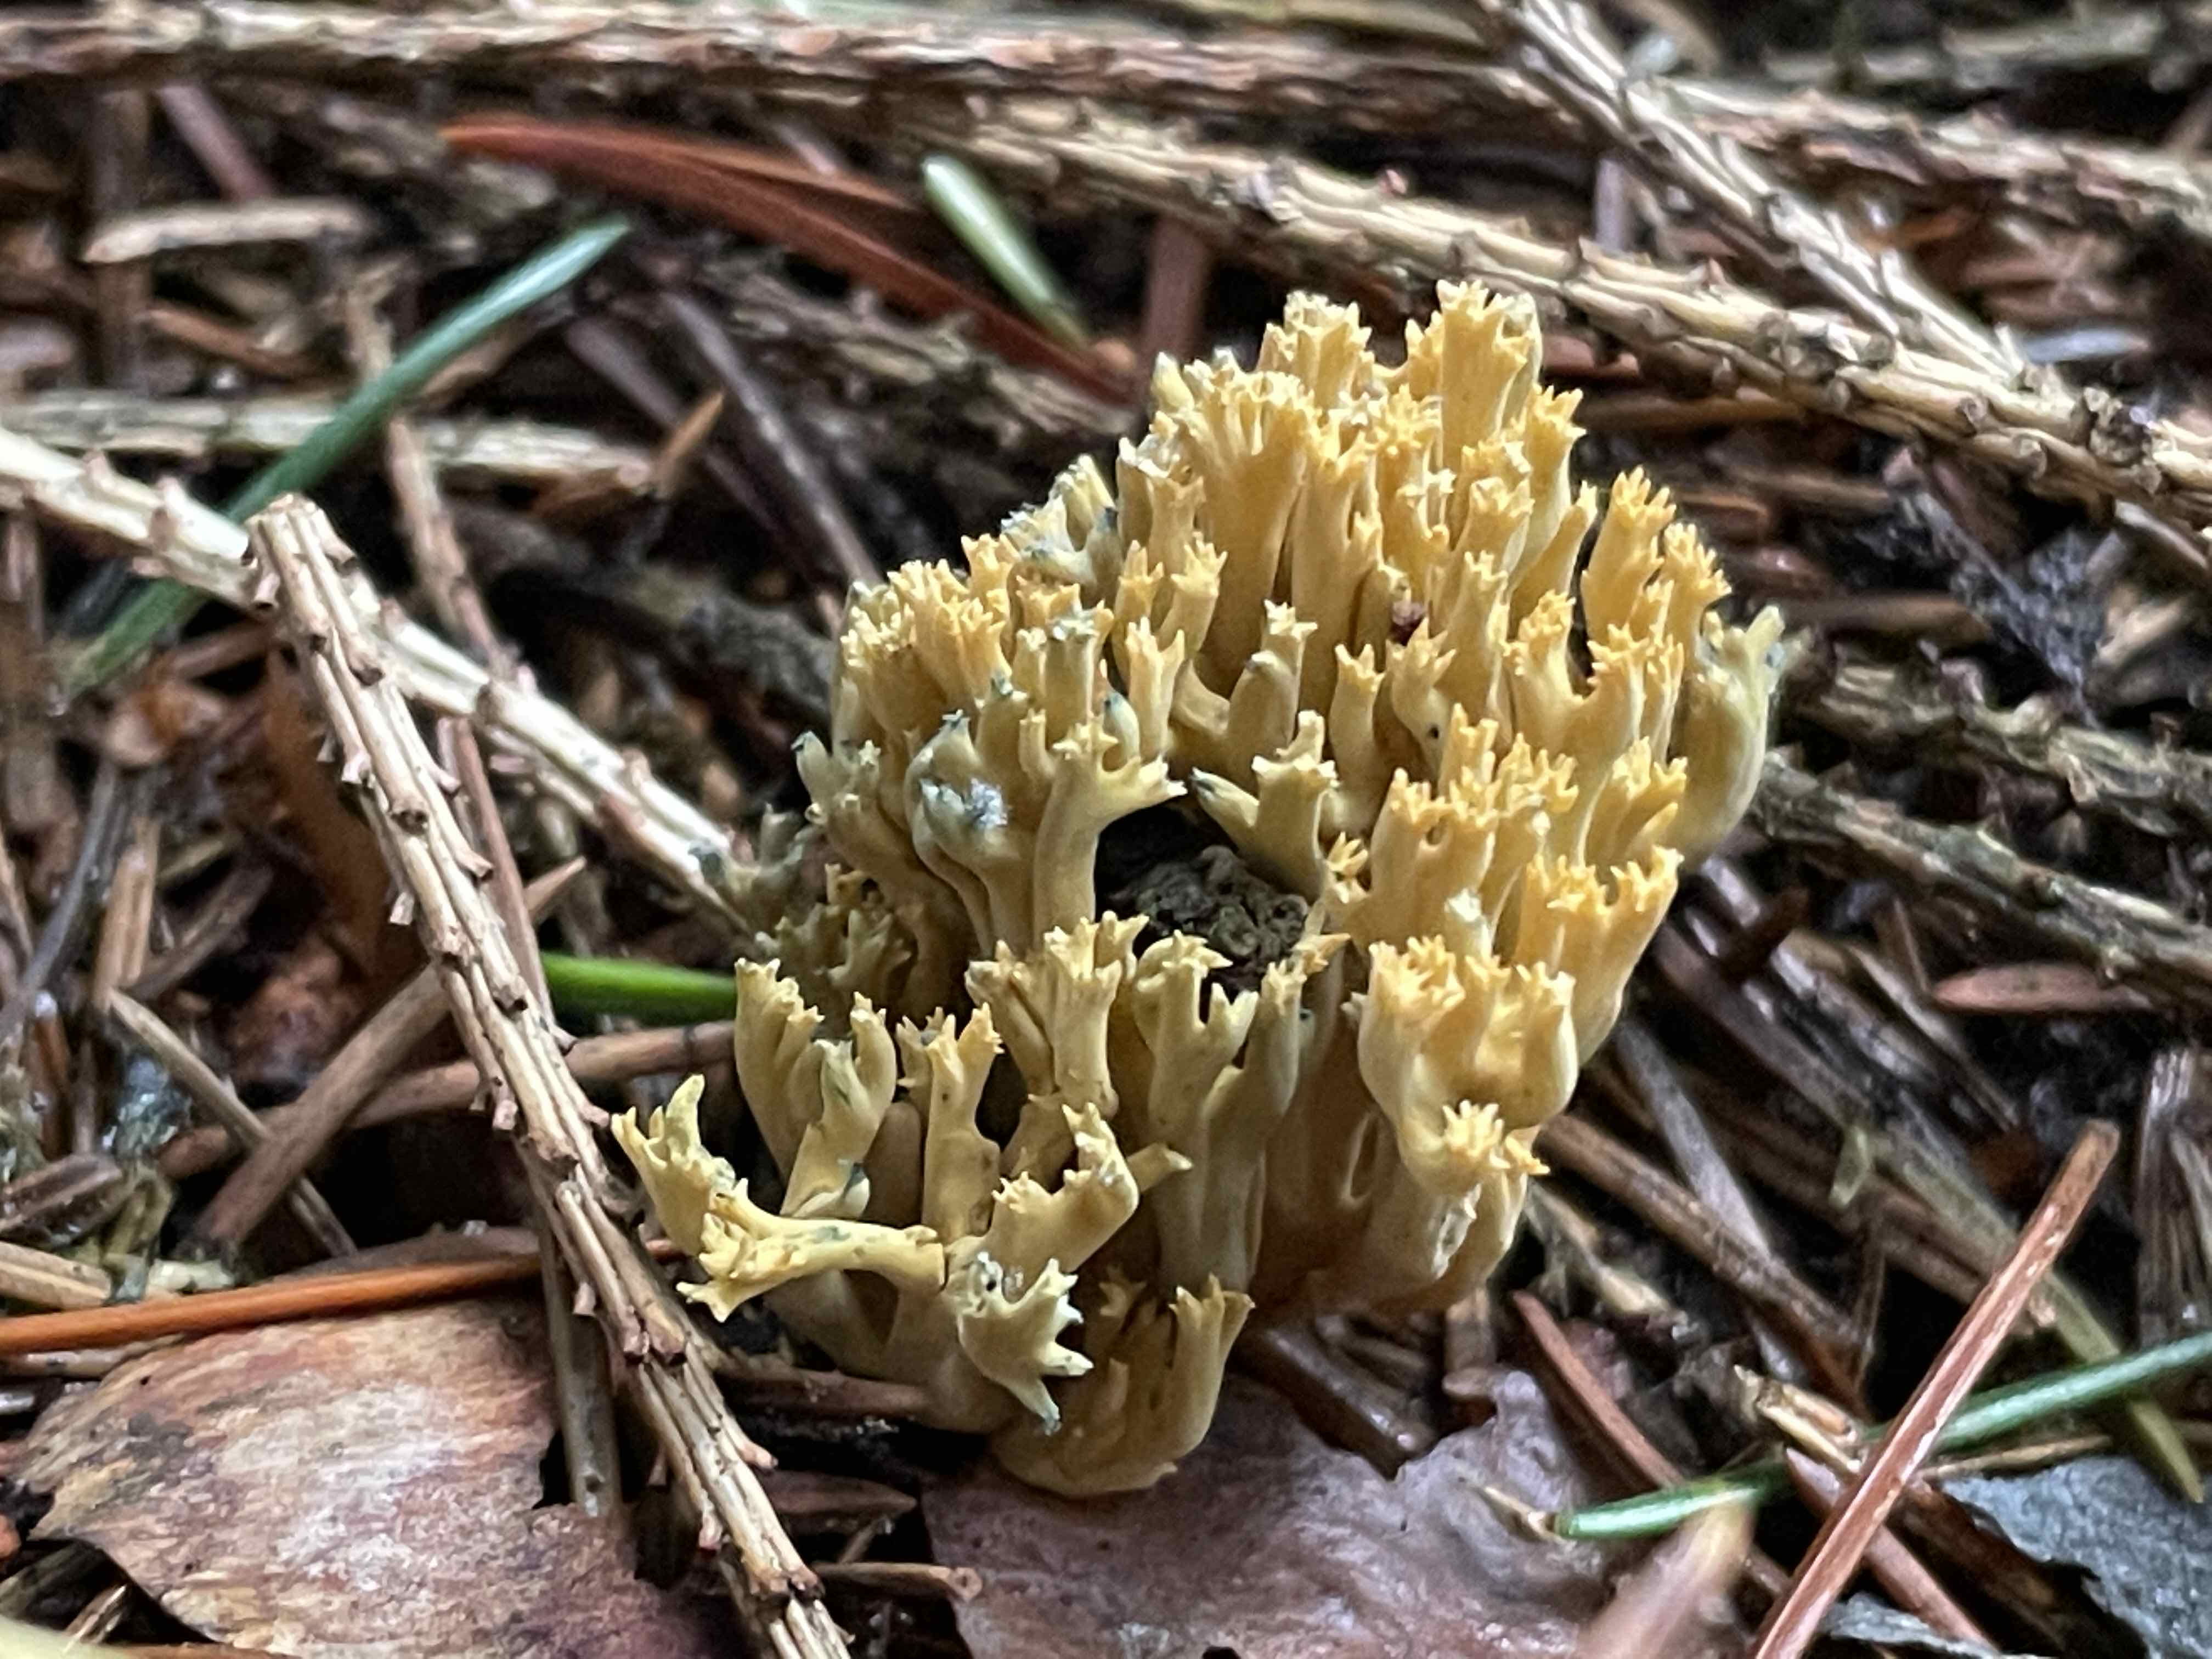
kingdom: Fungi
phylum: Basidiomycota
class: Agaricomycetes
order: Gomphales
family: Gomphaceae
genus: Phaeoclavulina
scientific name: Phaeoclavulina abietina
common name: gulgrøn koralsvamp
